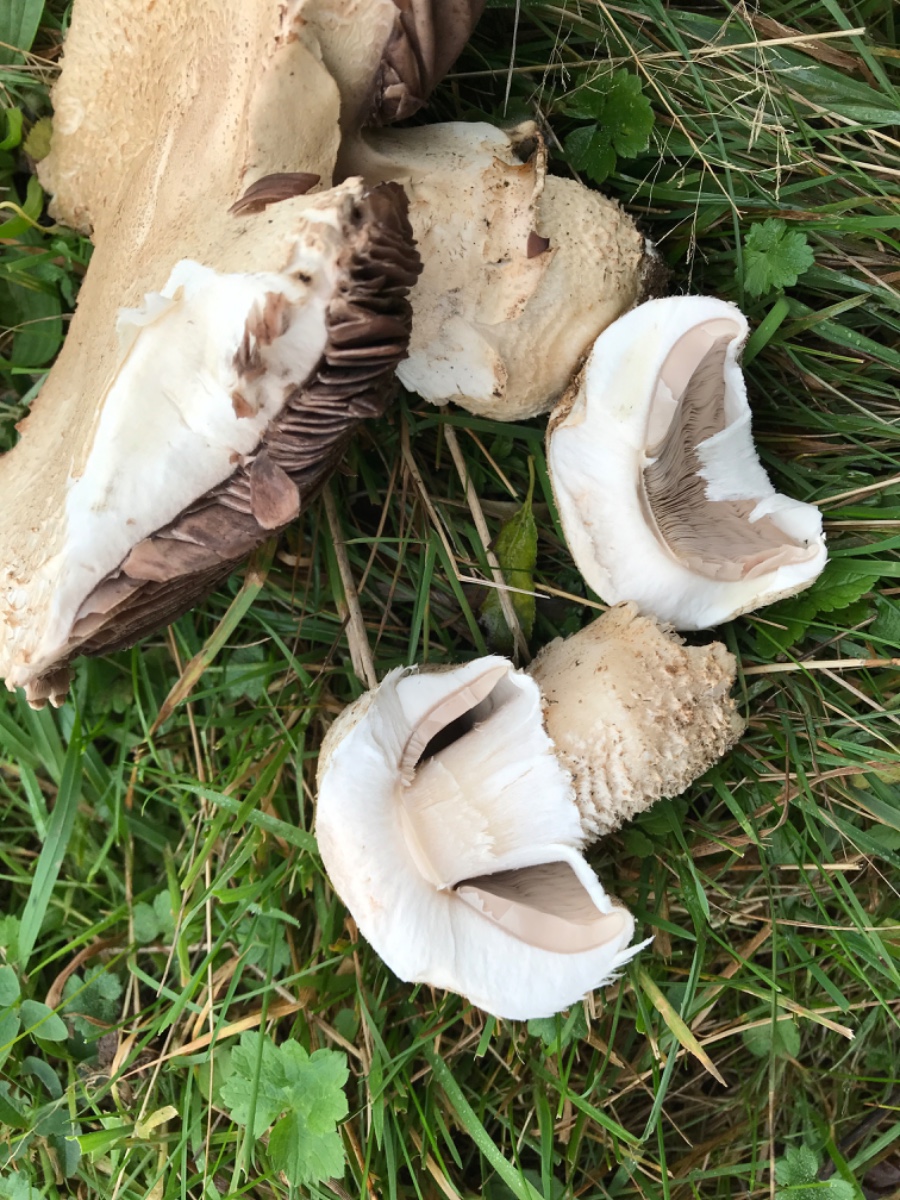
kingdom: Fungi
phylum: Basidiomycota
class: Agaricomycetes
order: Agaricales
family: Agaricaceae
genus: Agaricus
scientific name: Agaricus crocodilinus
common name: landsby-champignon
